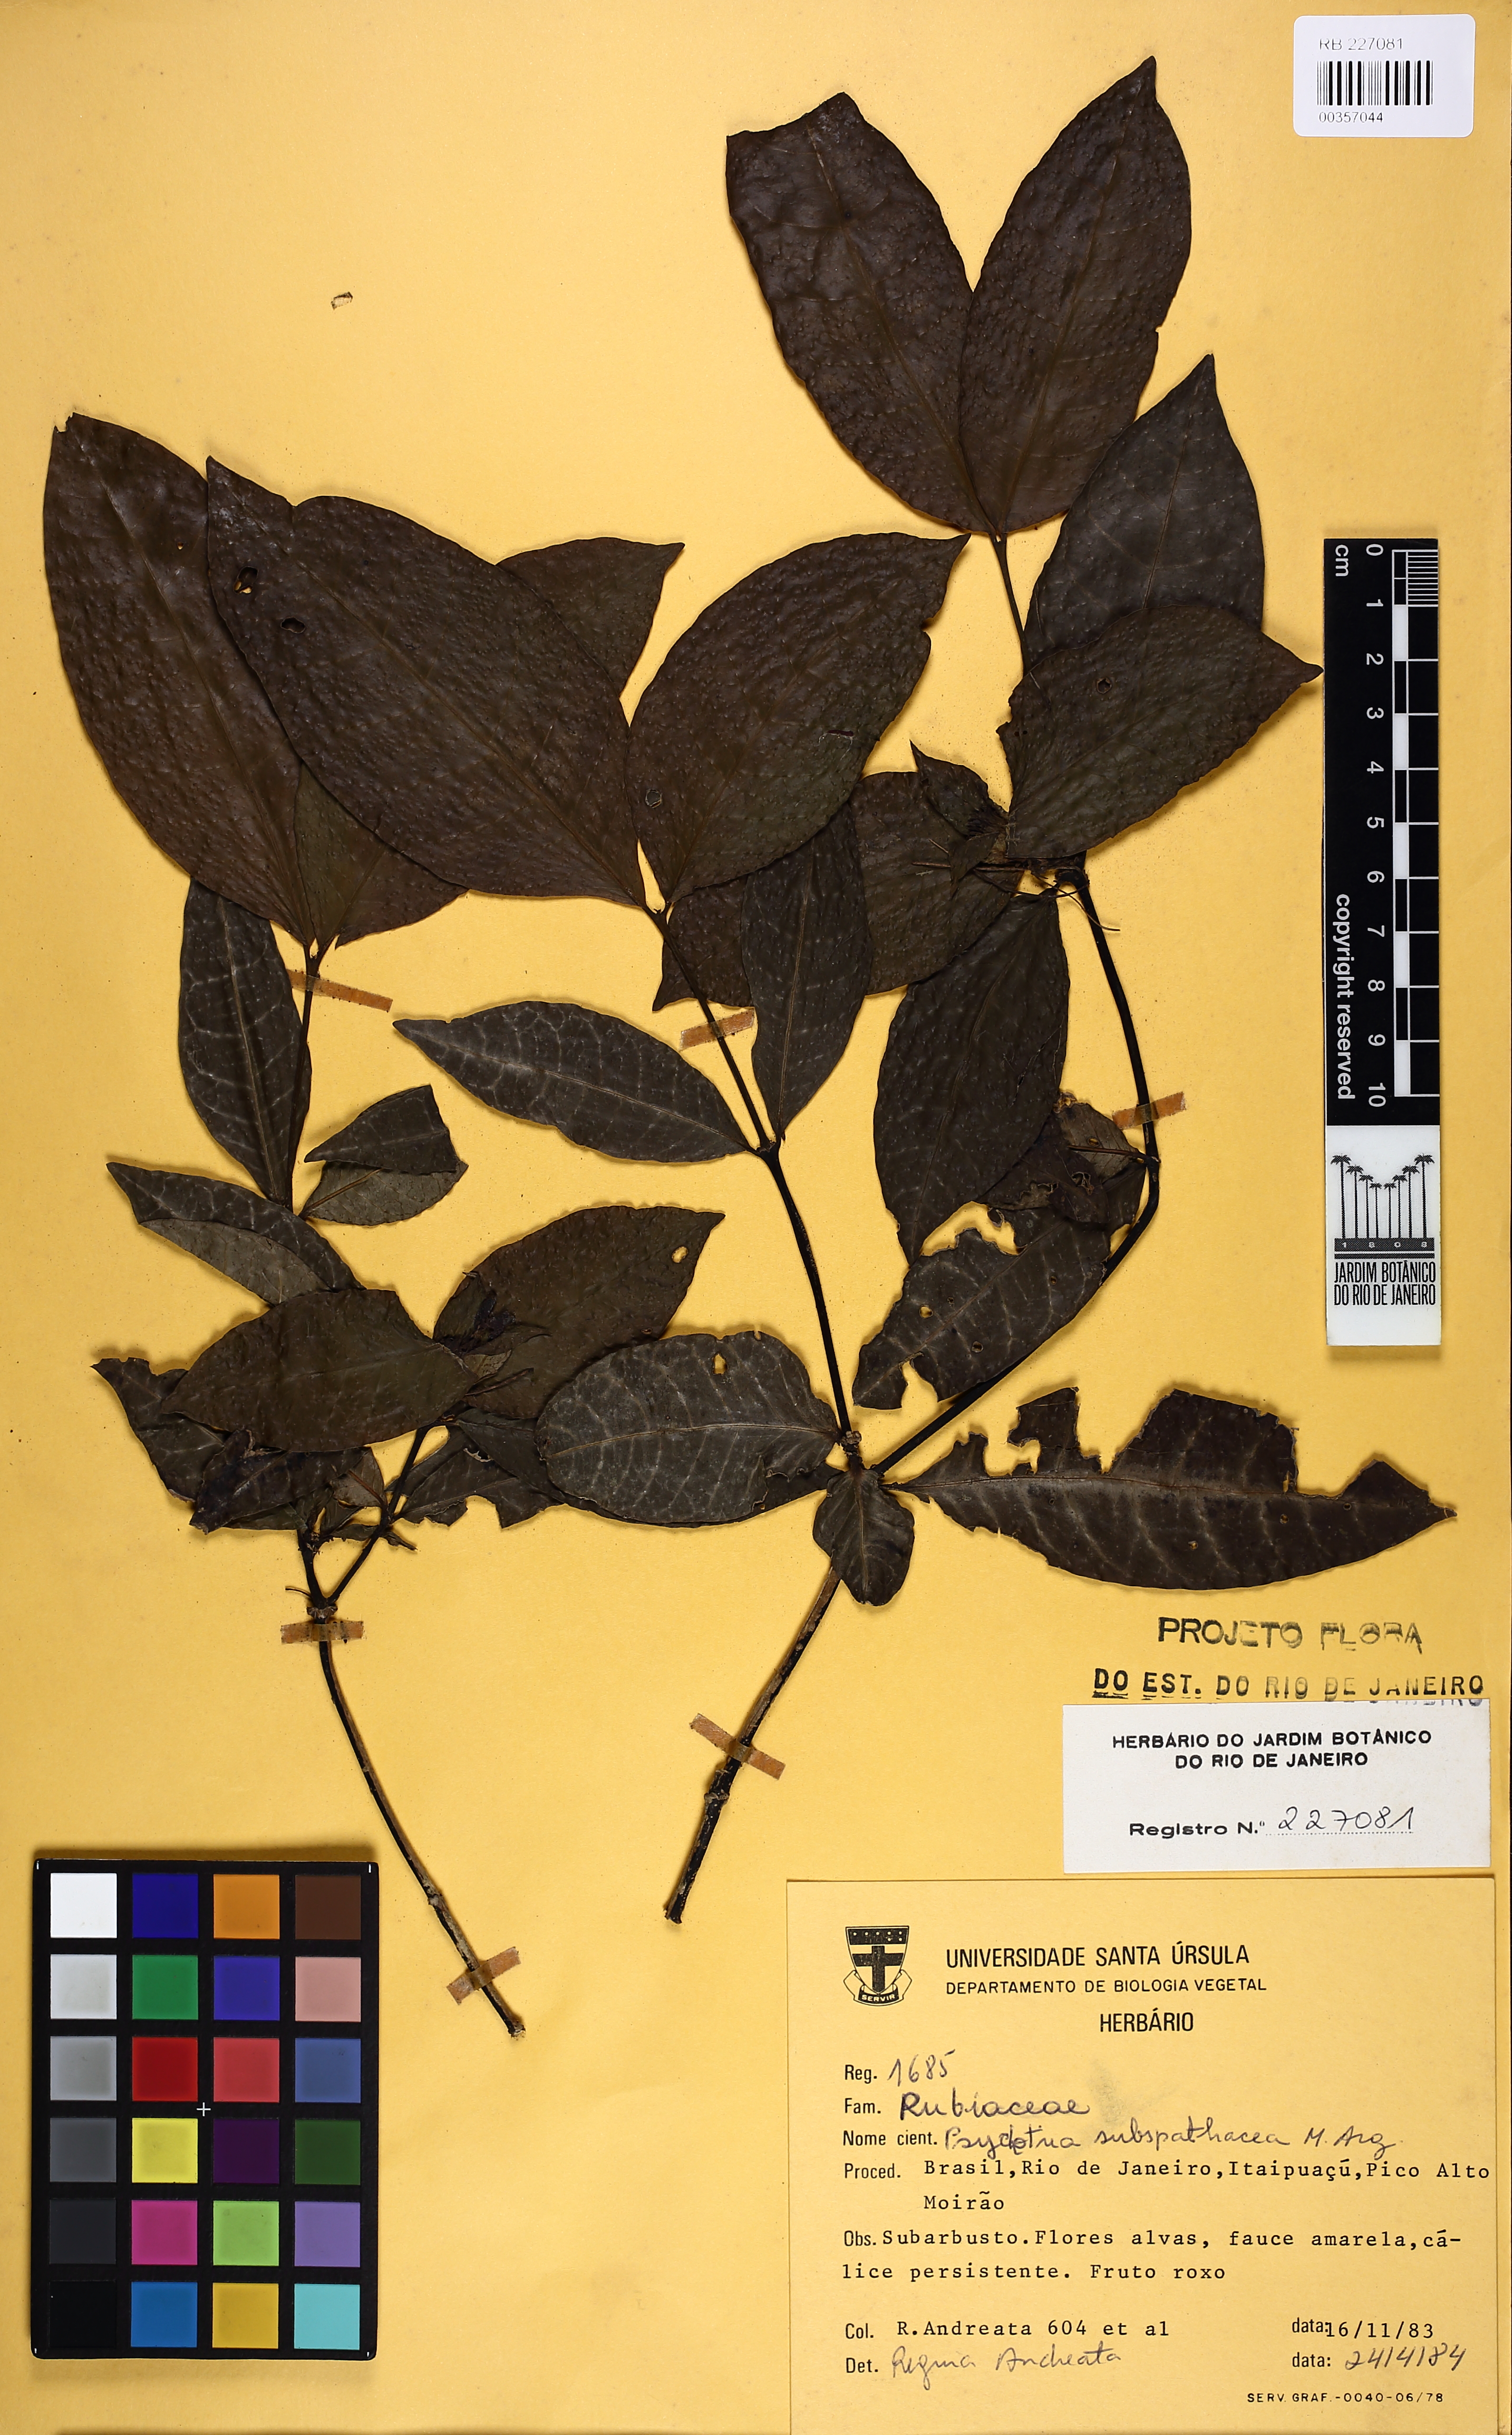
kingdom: Plantae
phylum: Tracheophyta
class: Magnoliopsida
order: Gentianales
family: Rubiaceae
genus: Psychotria
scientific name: Psychotria subspathacea
